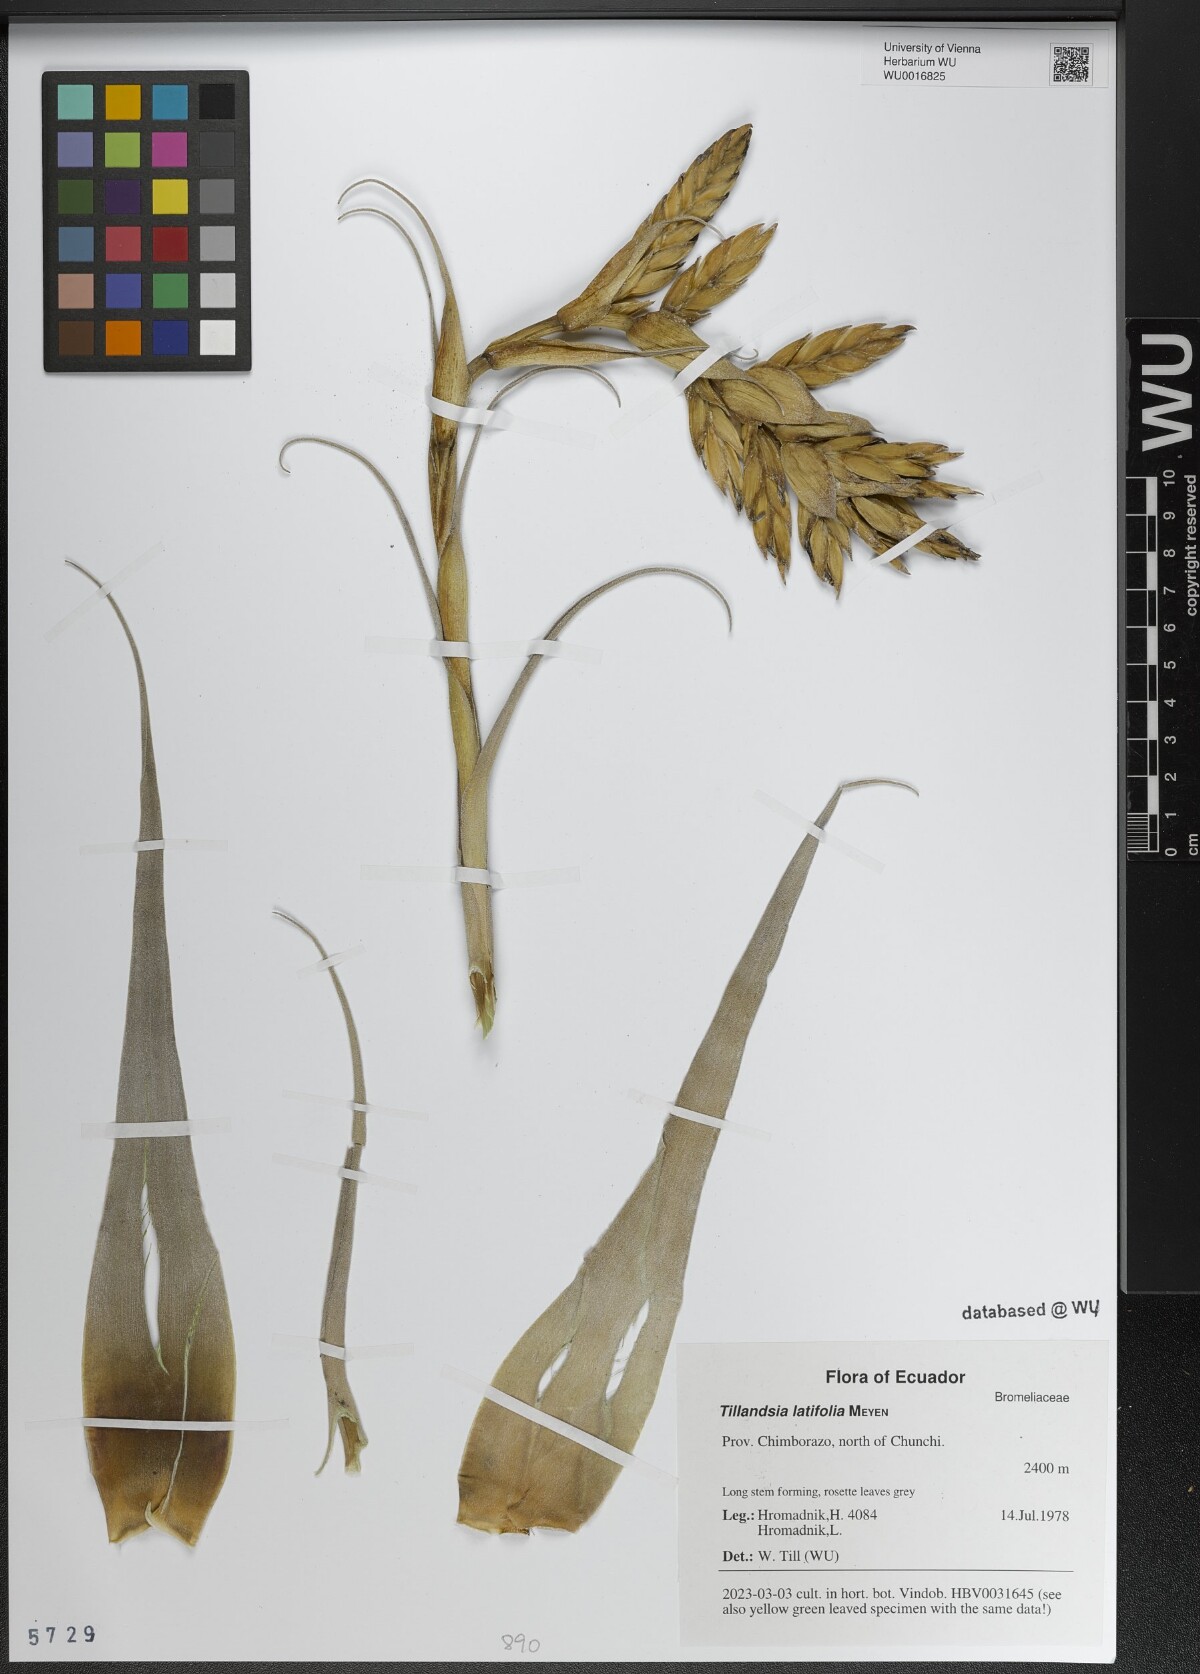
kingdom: Plantae
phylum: Tracheophyta
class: Liliopsida
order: Poales
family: Bromeliaceae
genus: Tillandsia
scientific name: Tillandsia latifolia
